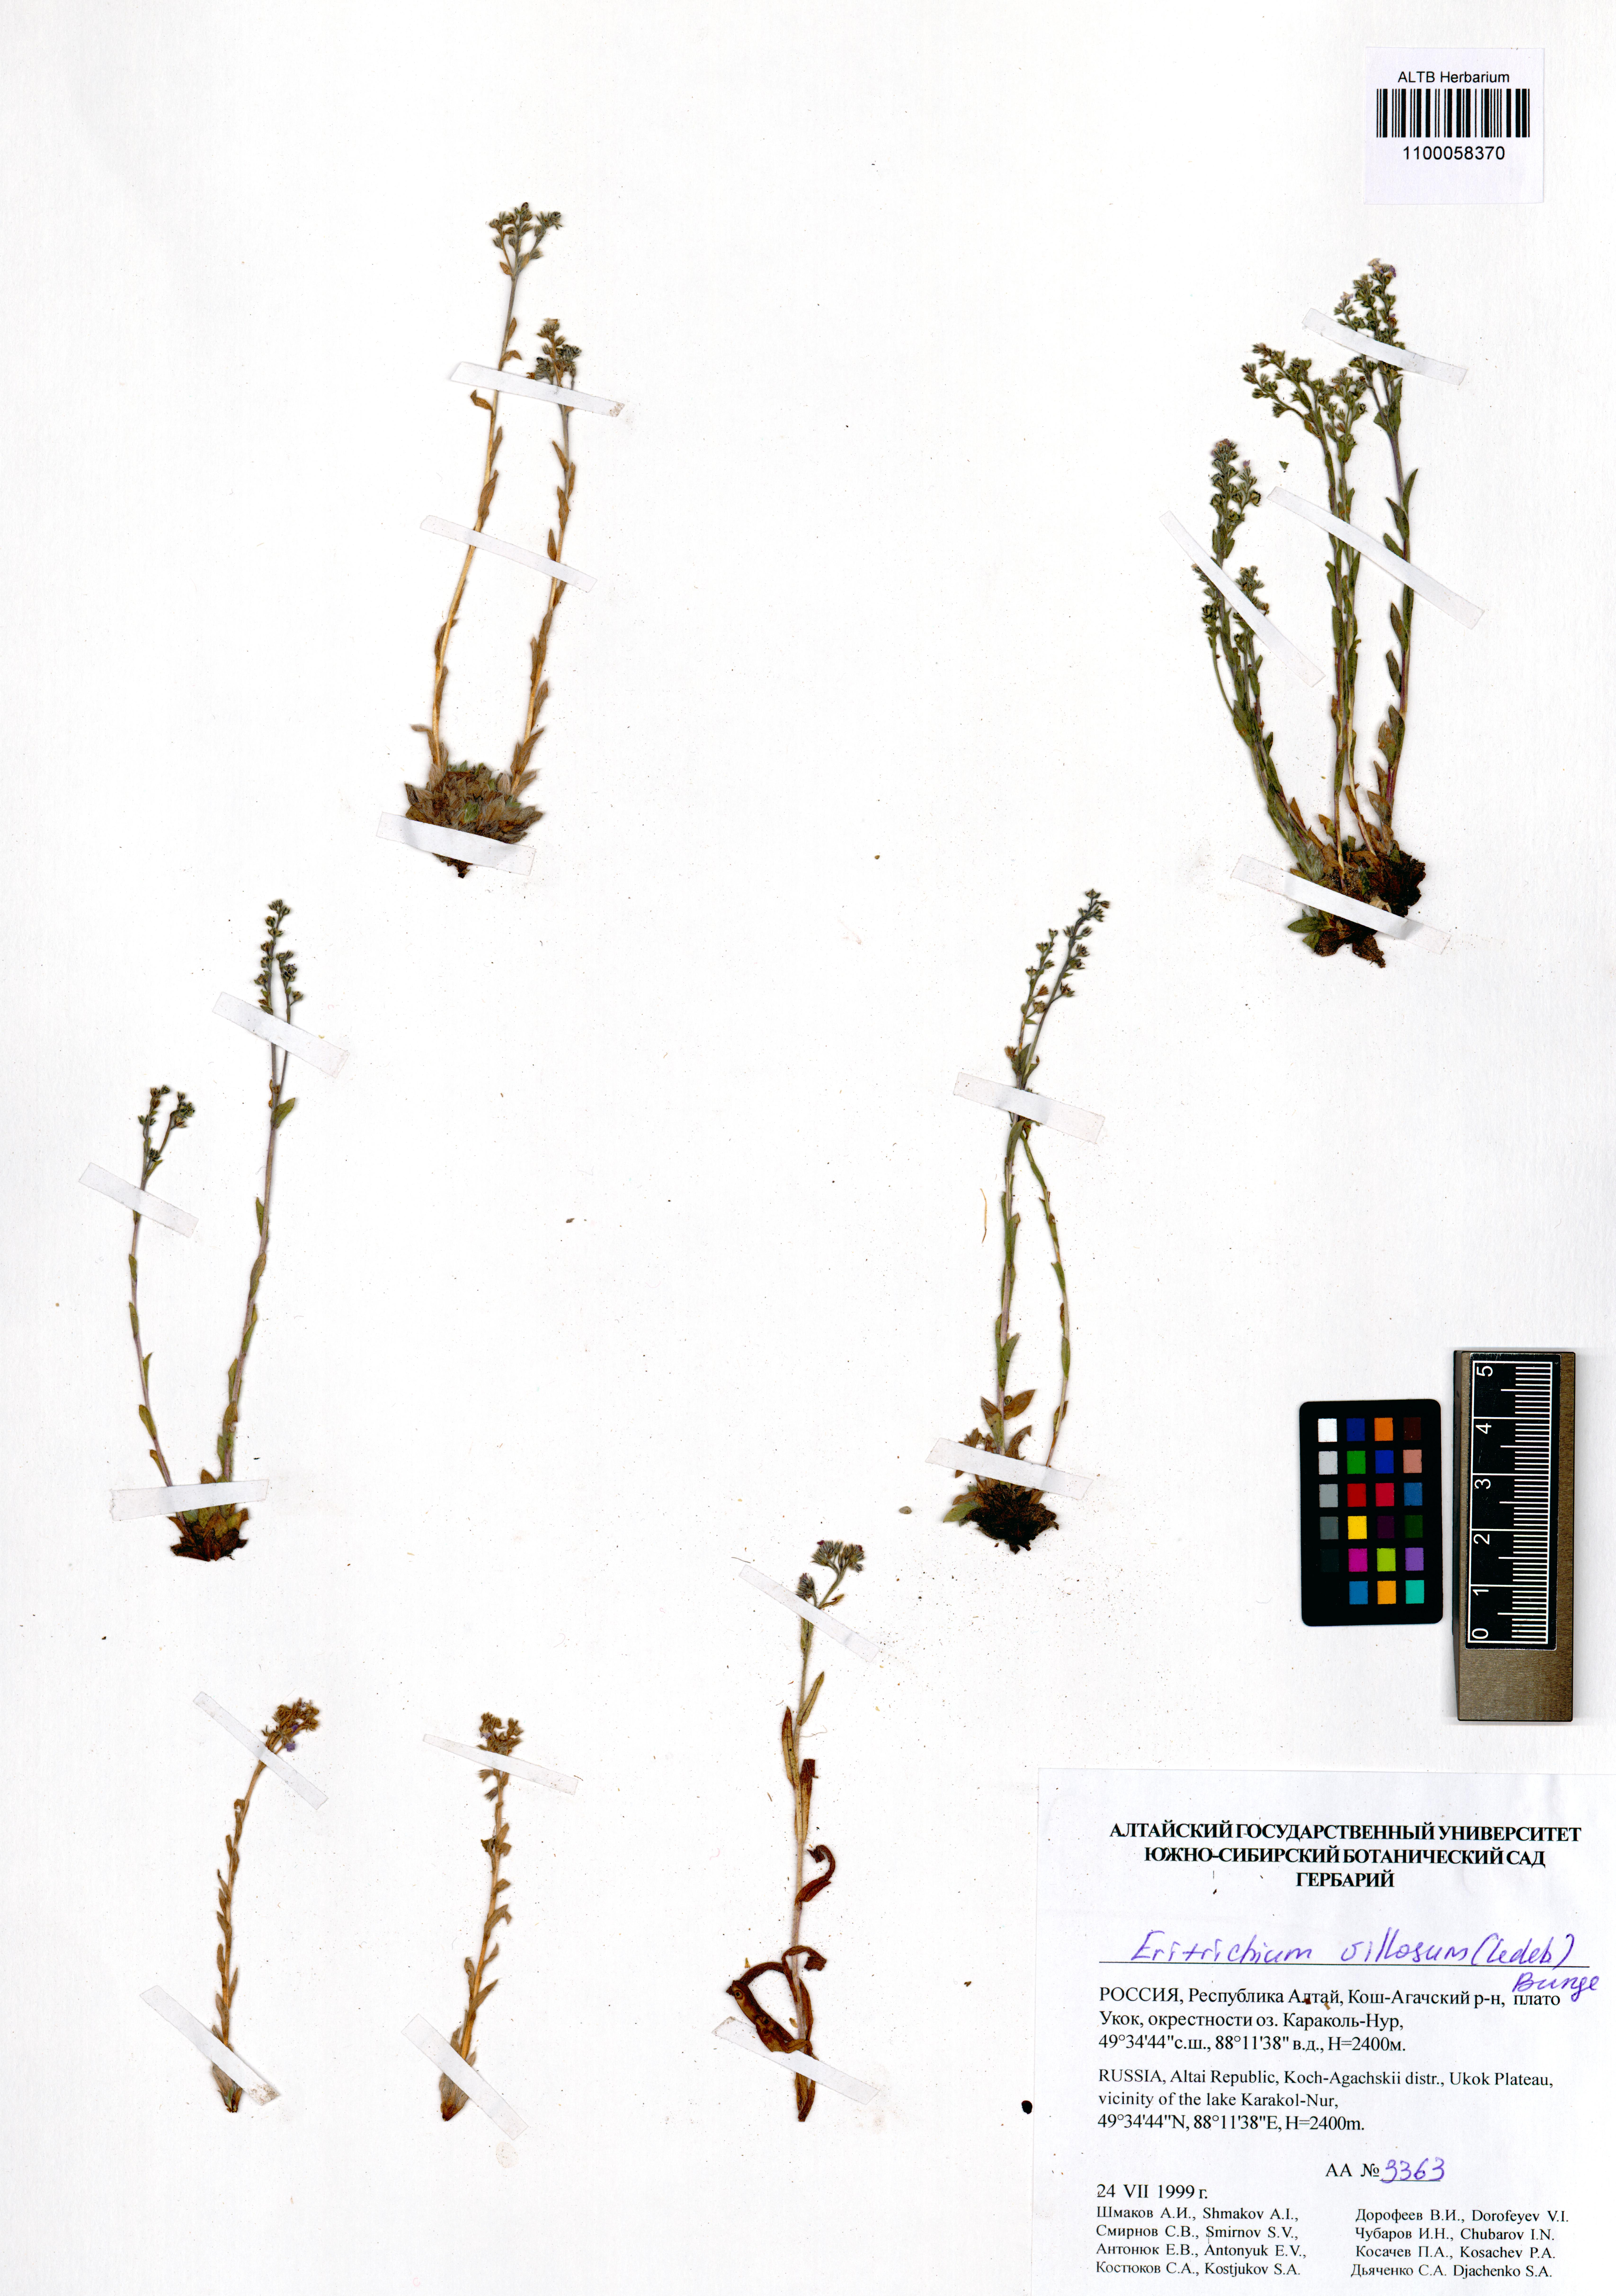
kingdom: Plantae
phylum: Tracheophyta
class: Magnoliopsida
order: Boraginales
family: Boraginaceae
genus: Eritrichium
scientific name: Eritrichium villosum
